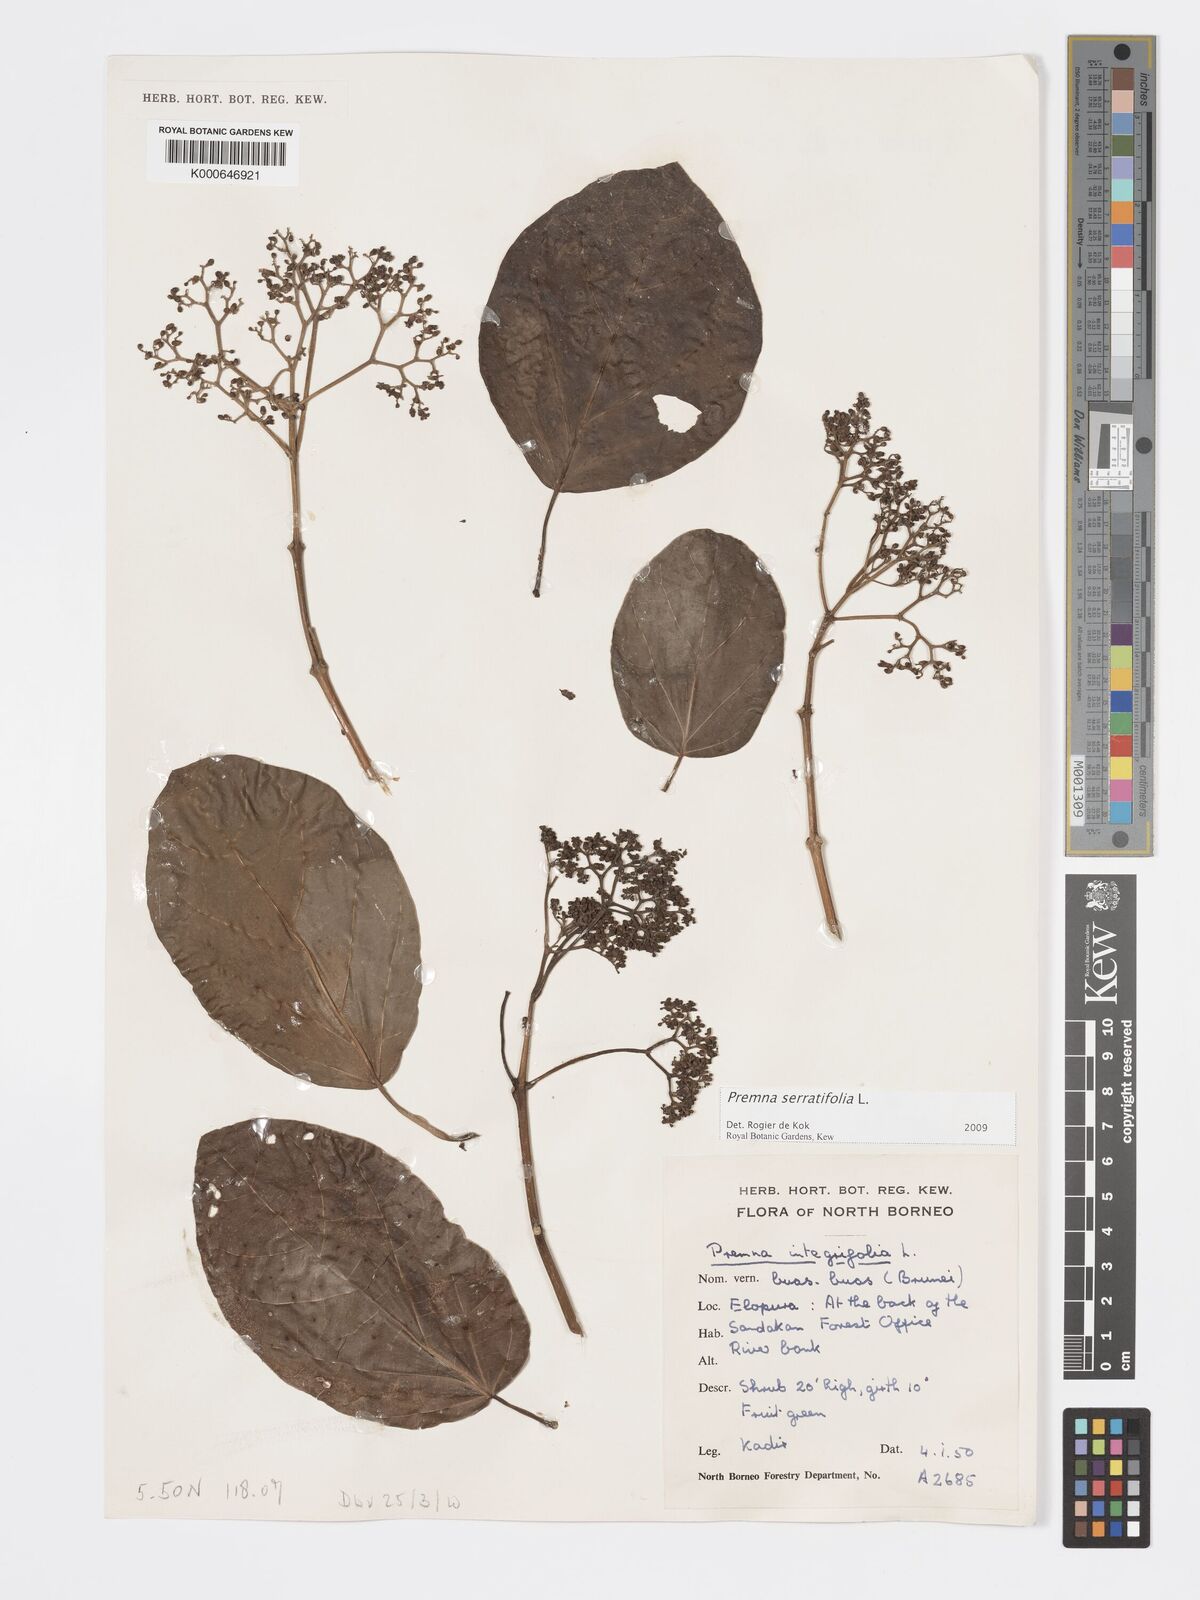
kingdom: Plantae
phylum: Tracheophyta
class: Magnoliopsida
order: Lamiales
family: Lamiaceae
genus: Premna
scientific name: Premna serratifolia
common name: Bastard guelder
